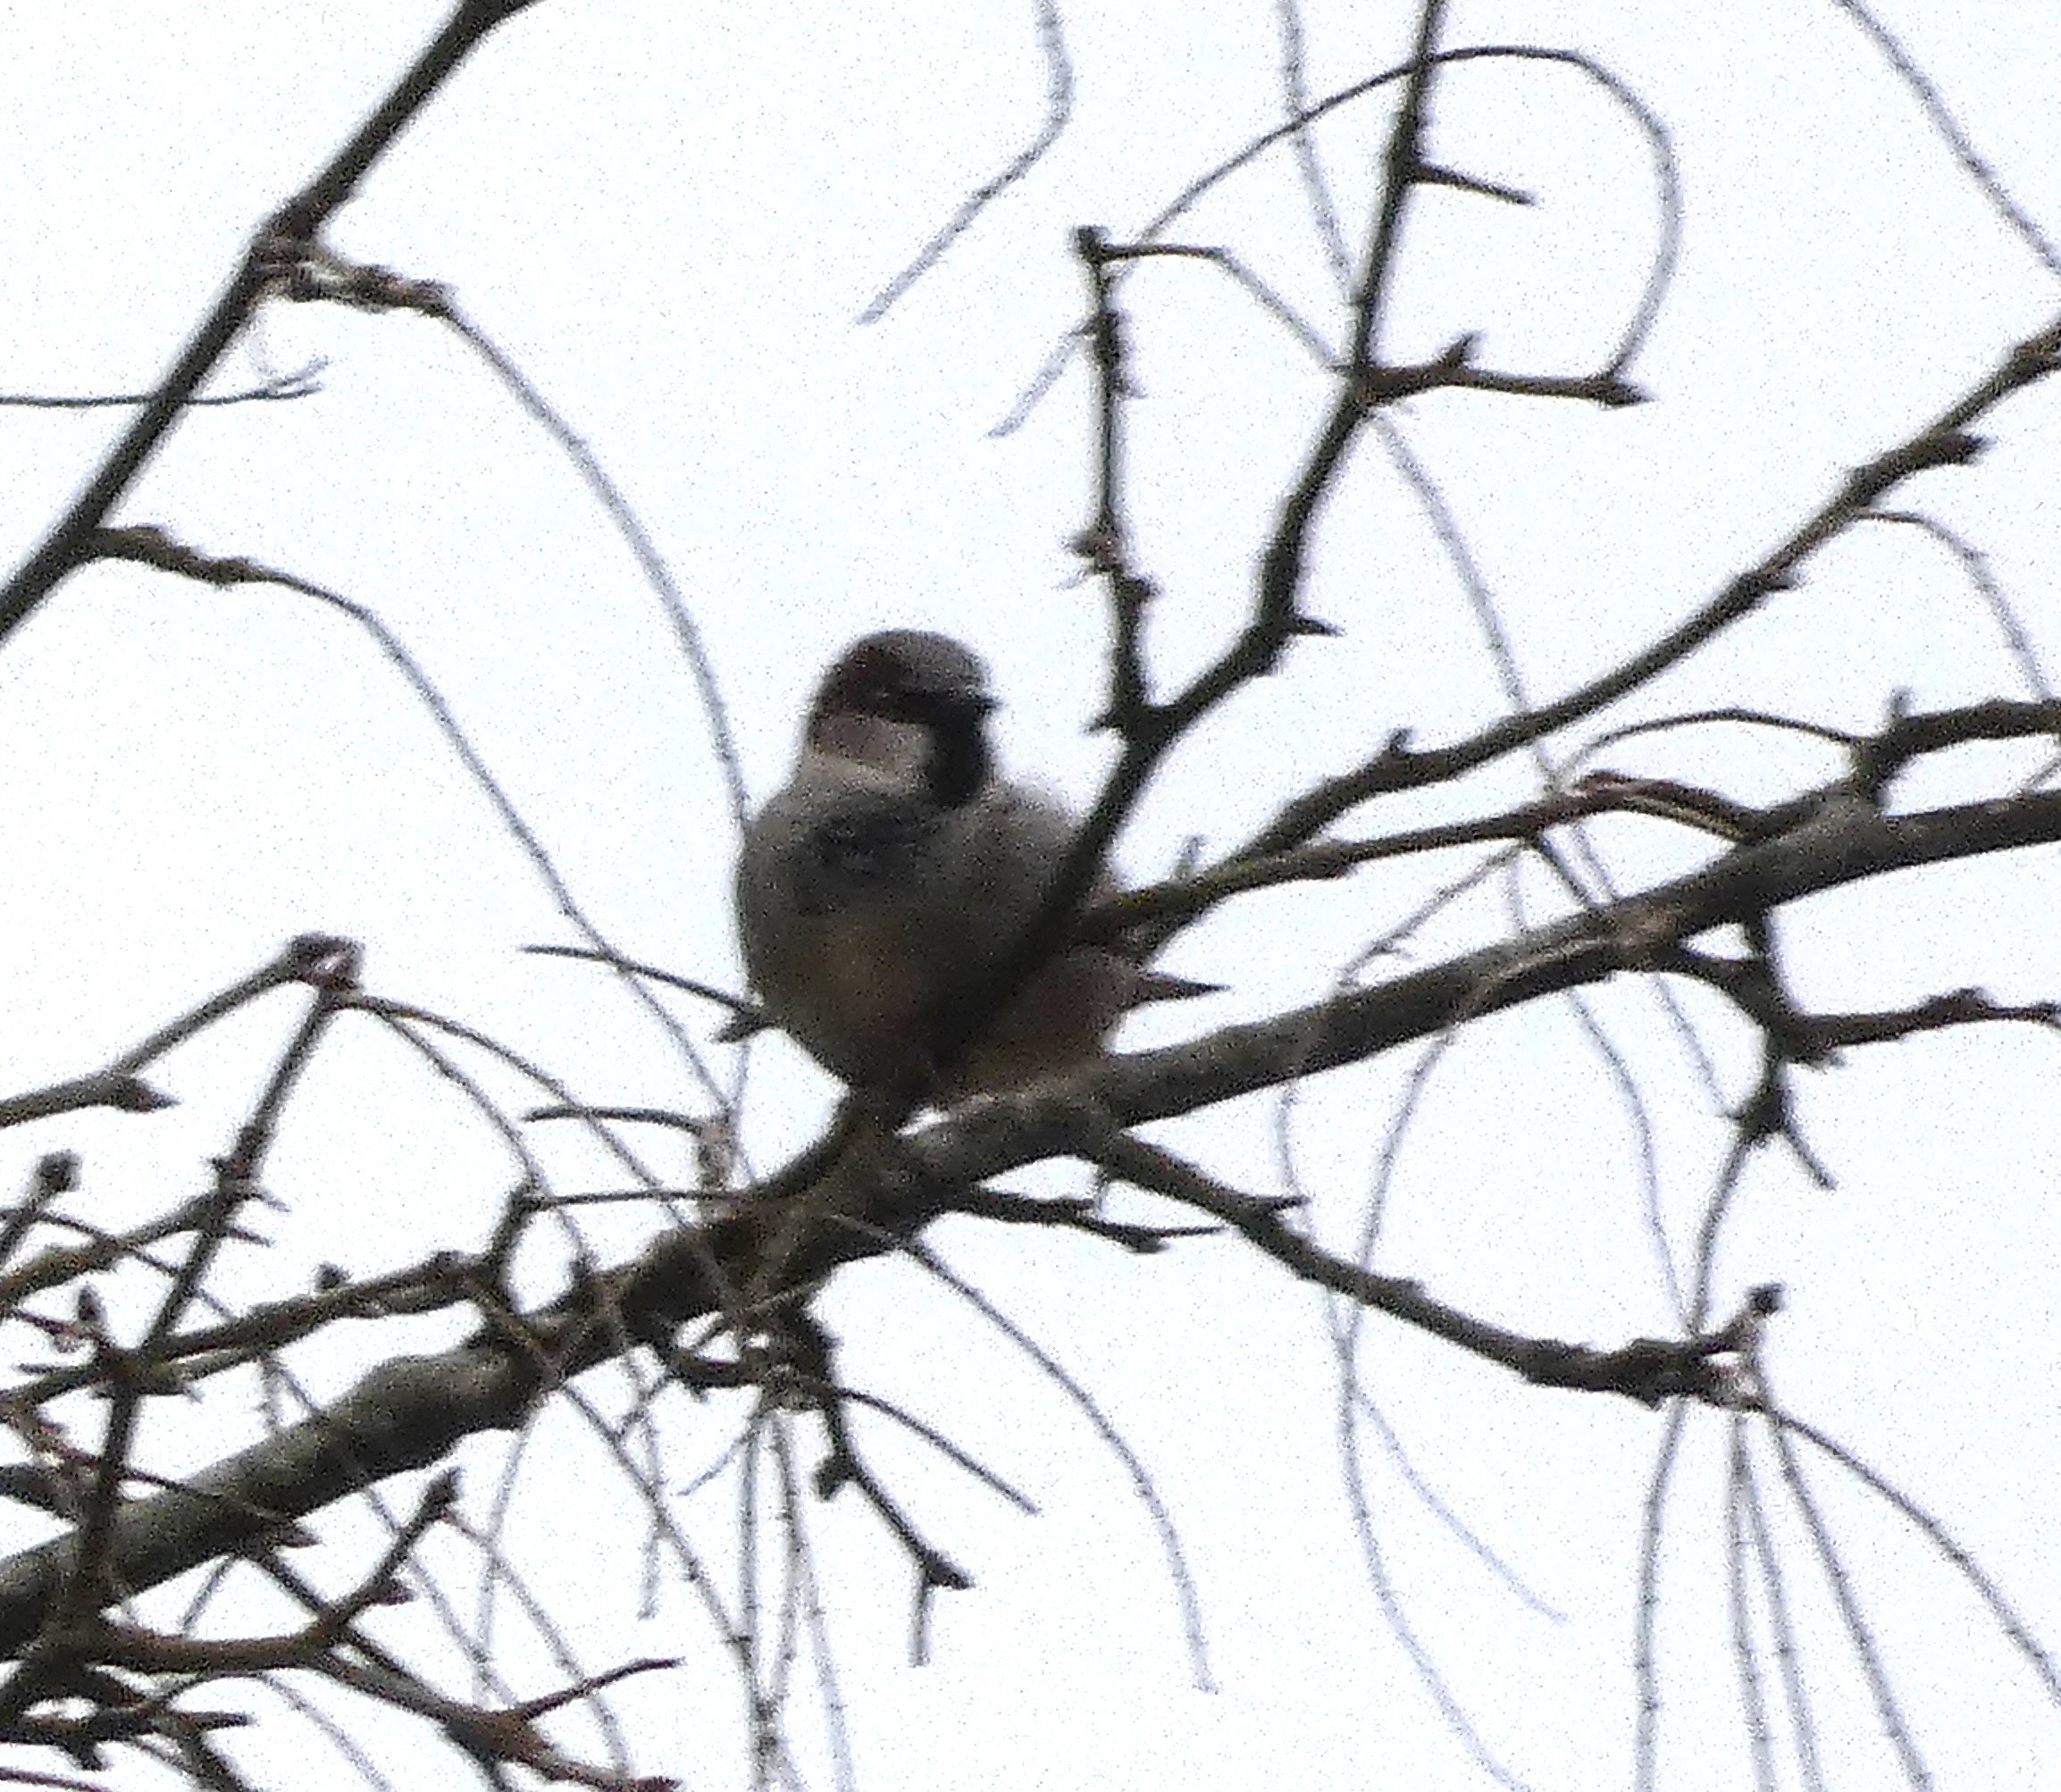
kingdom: Animalia
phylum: Chordata
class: Aves
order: Passeriformes
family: Passeridae
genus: Passer
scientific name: Passer domesticus
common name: Gråspurv
